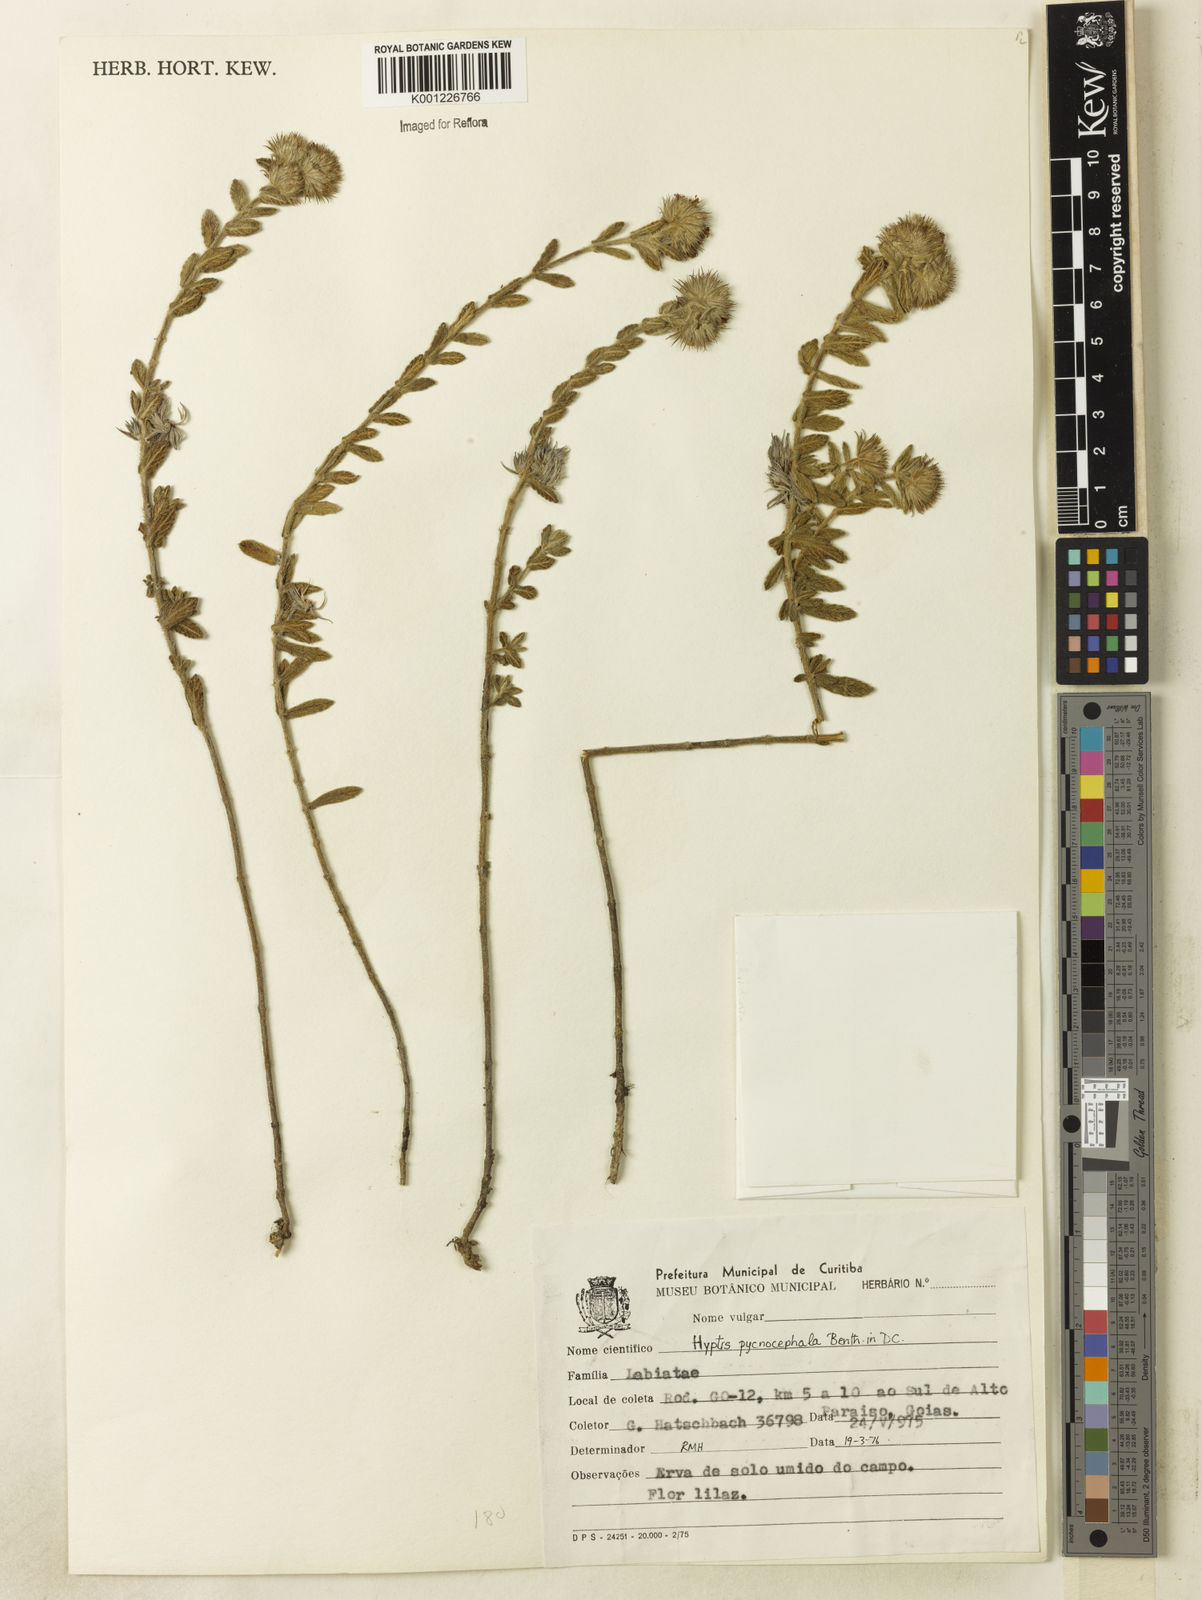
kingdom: Plantae
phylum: Tracheophyta
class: Magnoliopsida
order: Lamiales
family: Lamiaceae
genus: Hyptis
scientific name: Hyptis pycnocephala
